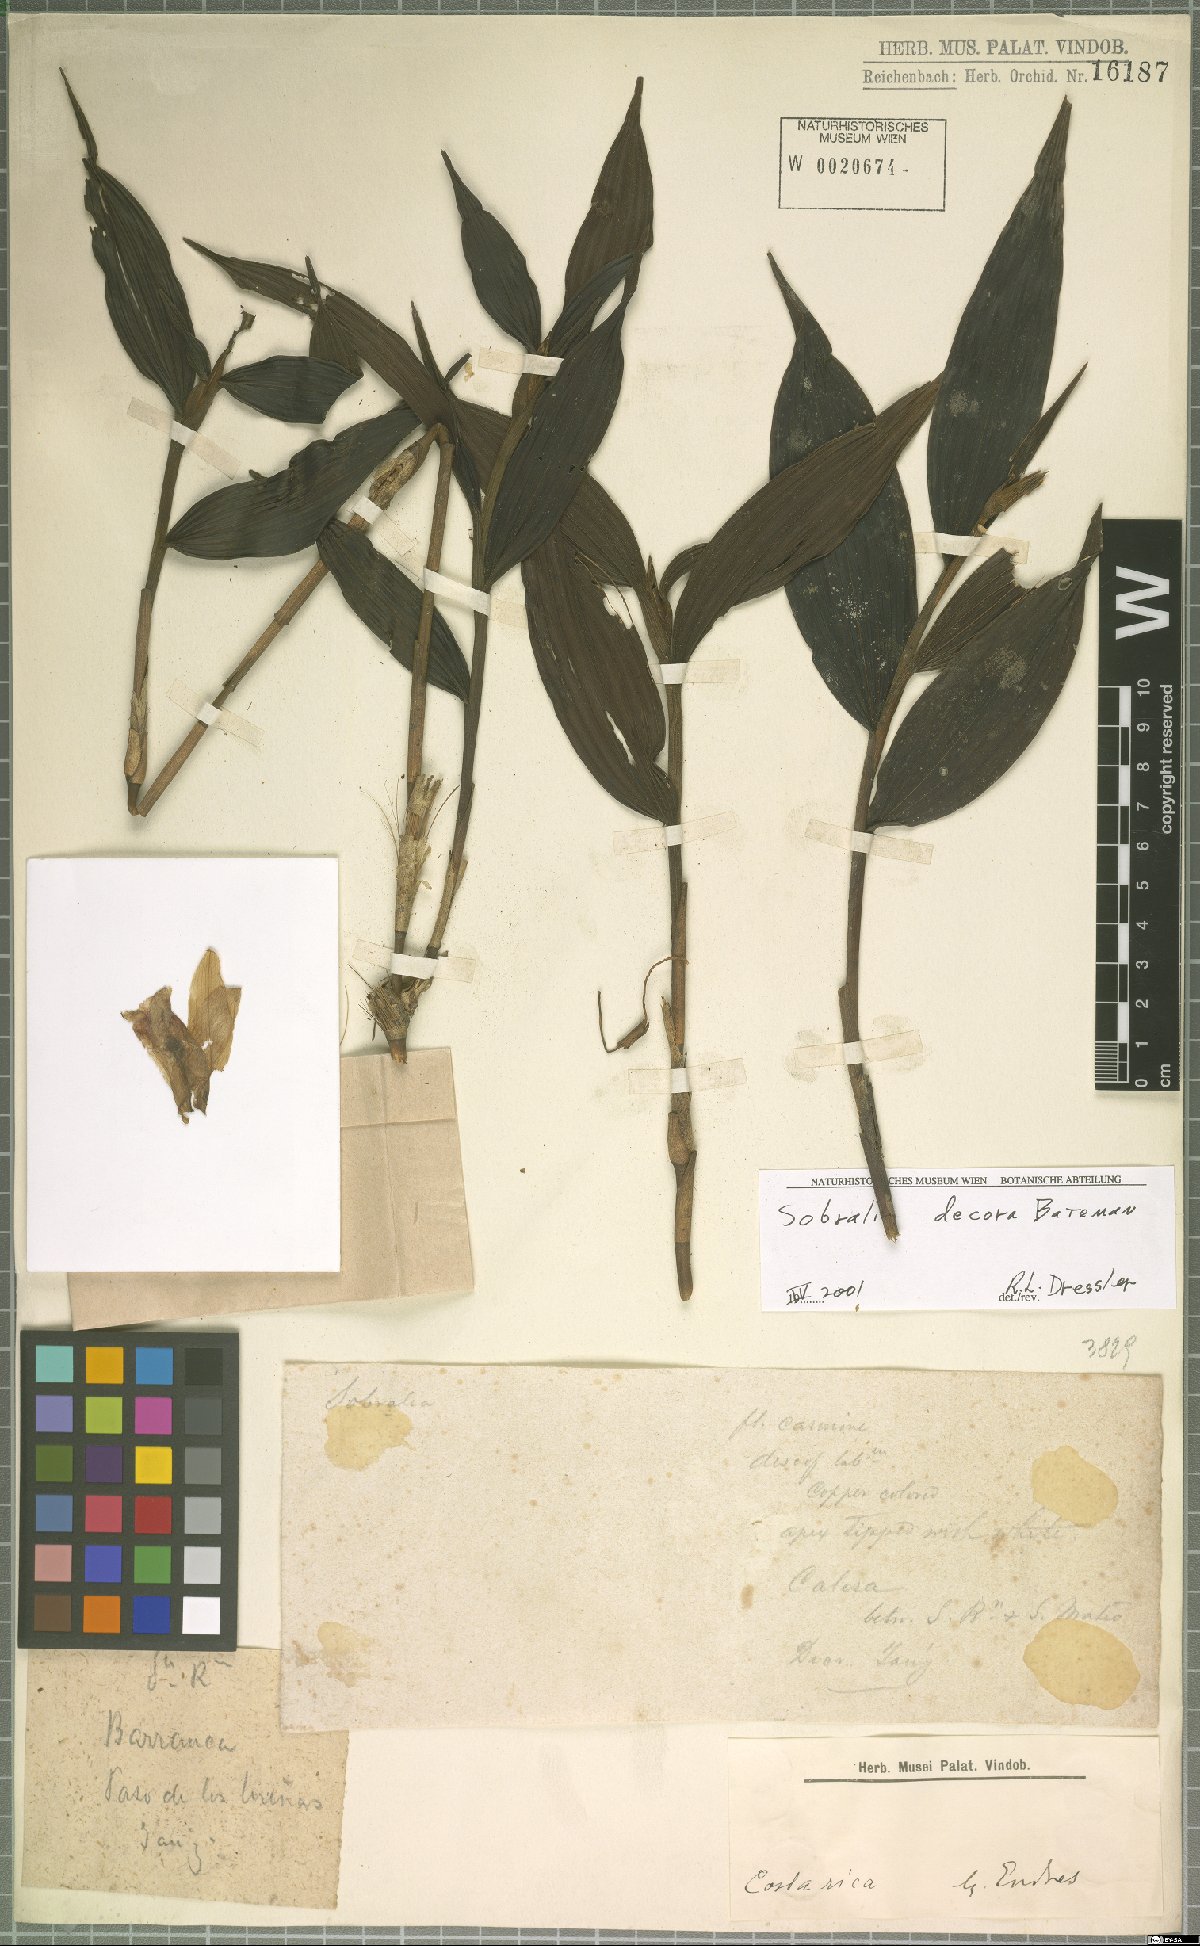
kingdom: Plantae
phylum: Tracheophyta
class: Liliopsida
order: Asparagales
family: Orchidaceae
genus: Sobralia
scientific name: Sobralia decora
